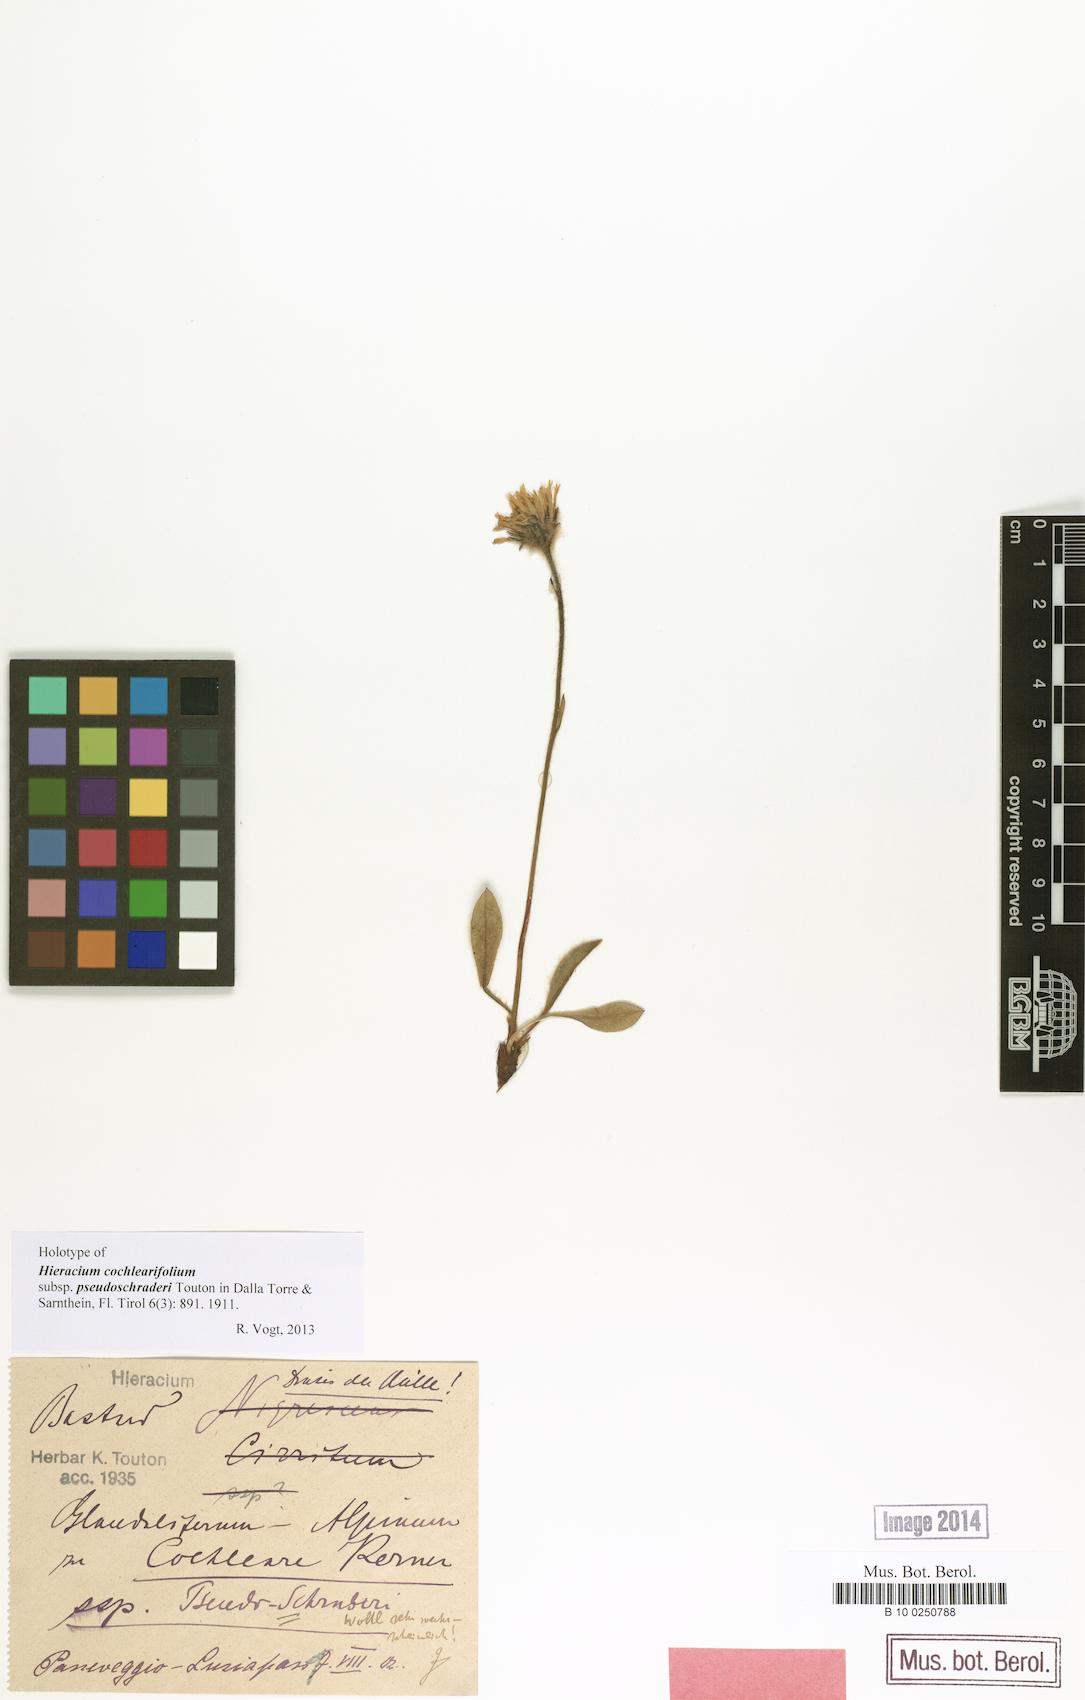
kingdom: Plantae
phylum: Tracheophyta
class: Magnoliopsida
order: Asterales
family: Asteraceae
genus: Hieracium
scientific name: Hieracium pseudalpinum
